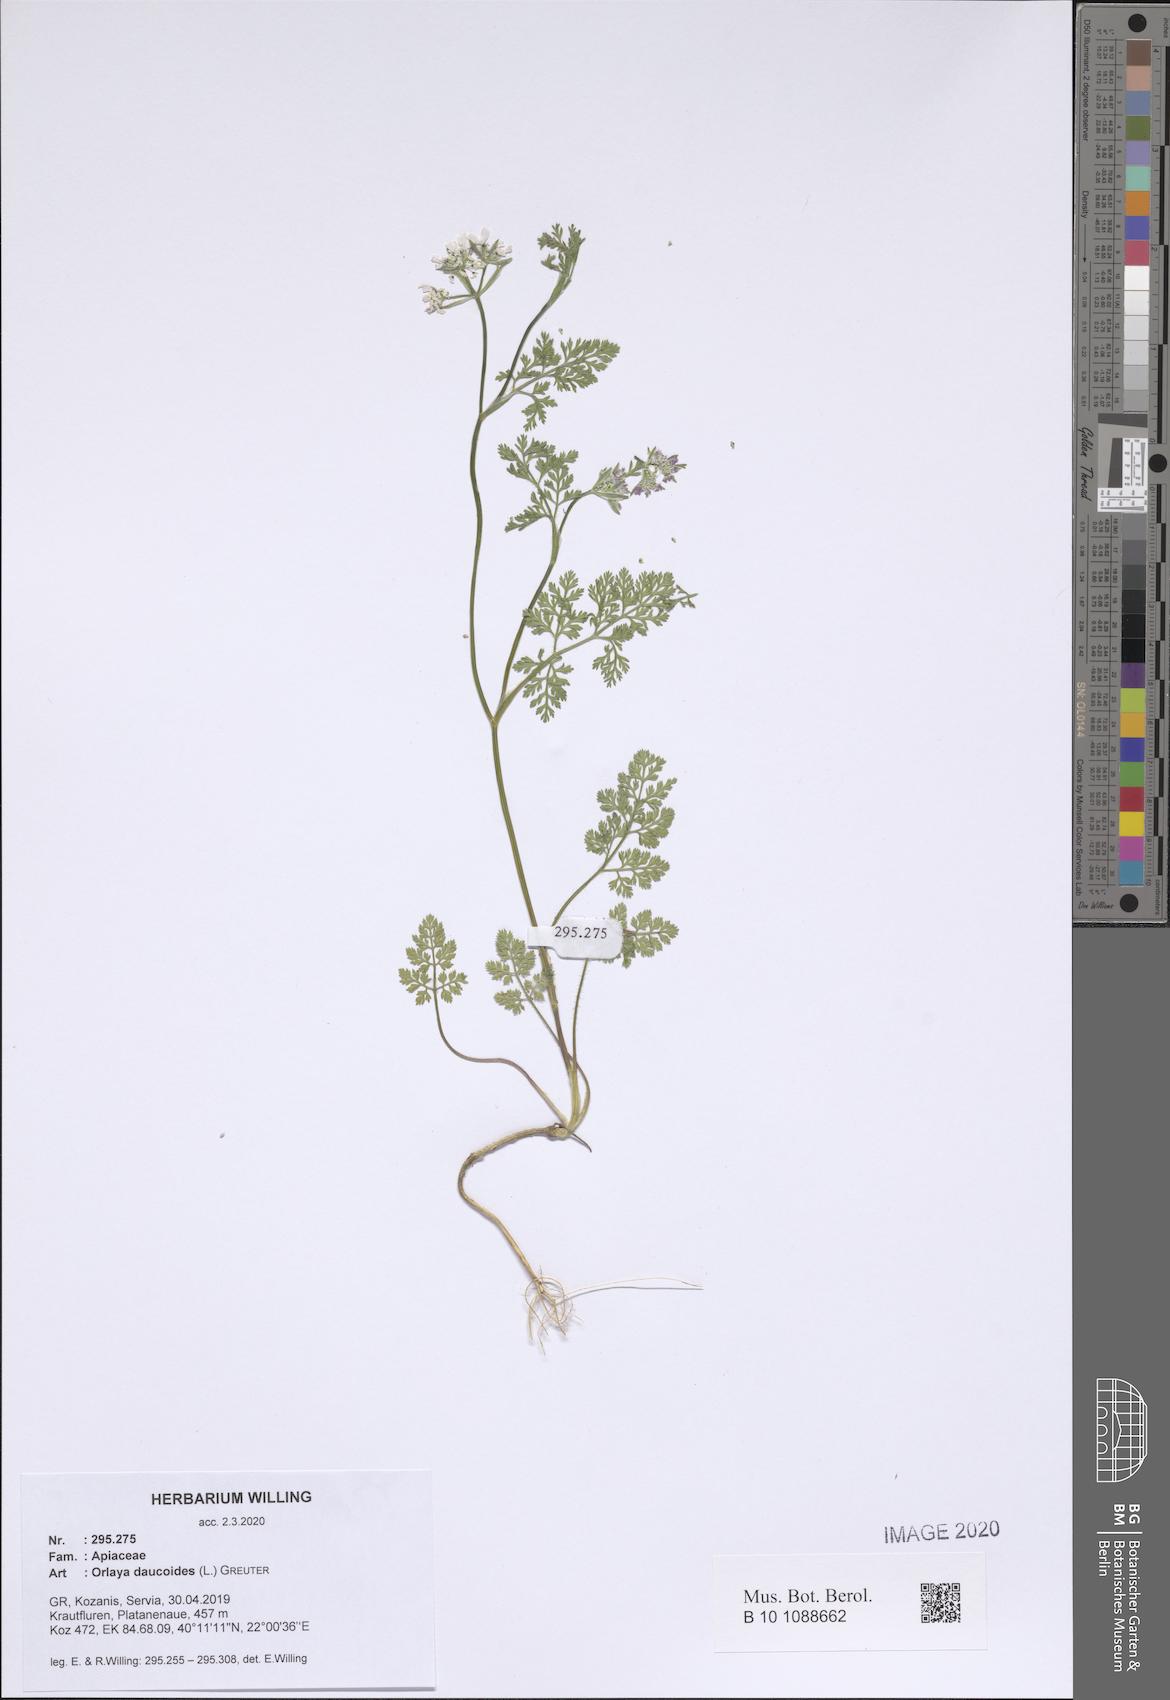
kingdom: Plantae
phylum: Tracheophyta
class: Magnoliopsida
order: Apiales
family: Apiaceae
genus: Orlaya
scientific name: Orlaya daucoides
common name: Flat-fruit orlaya
